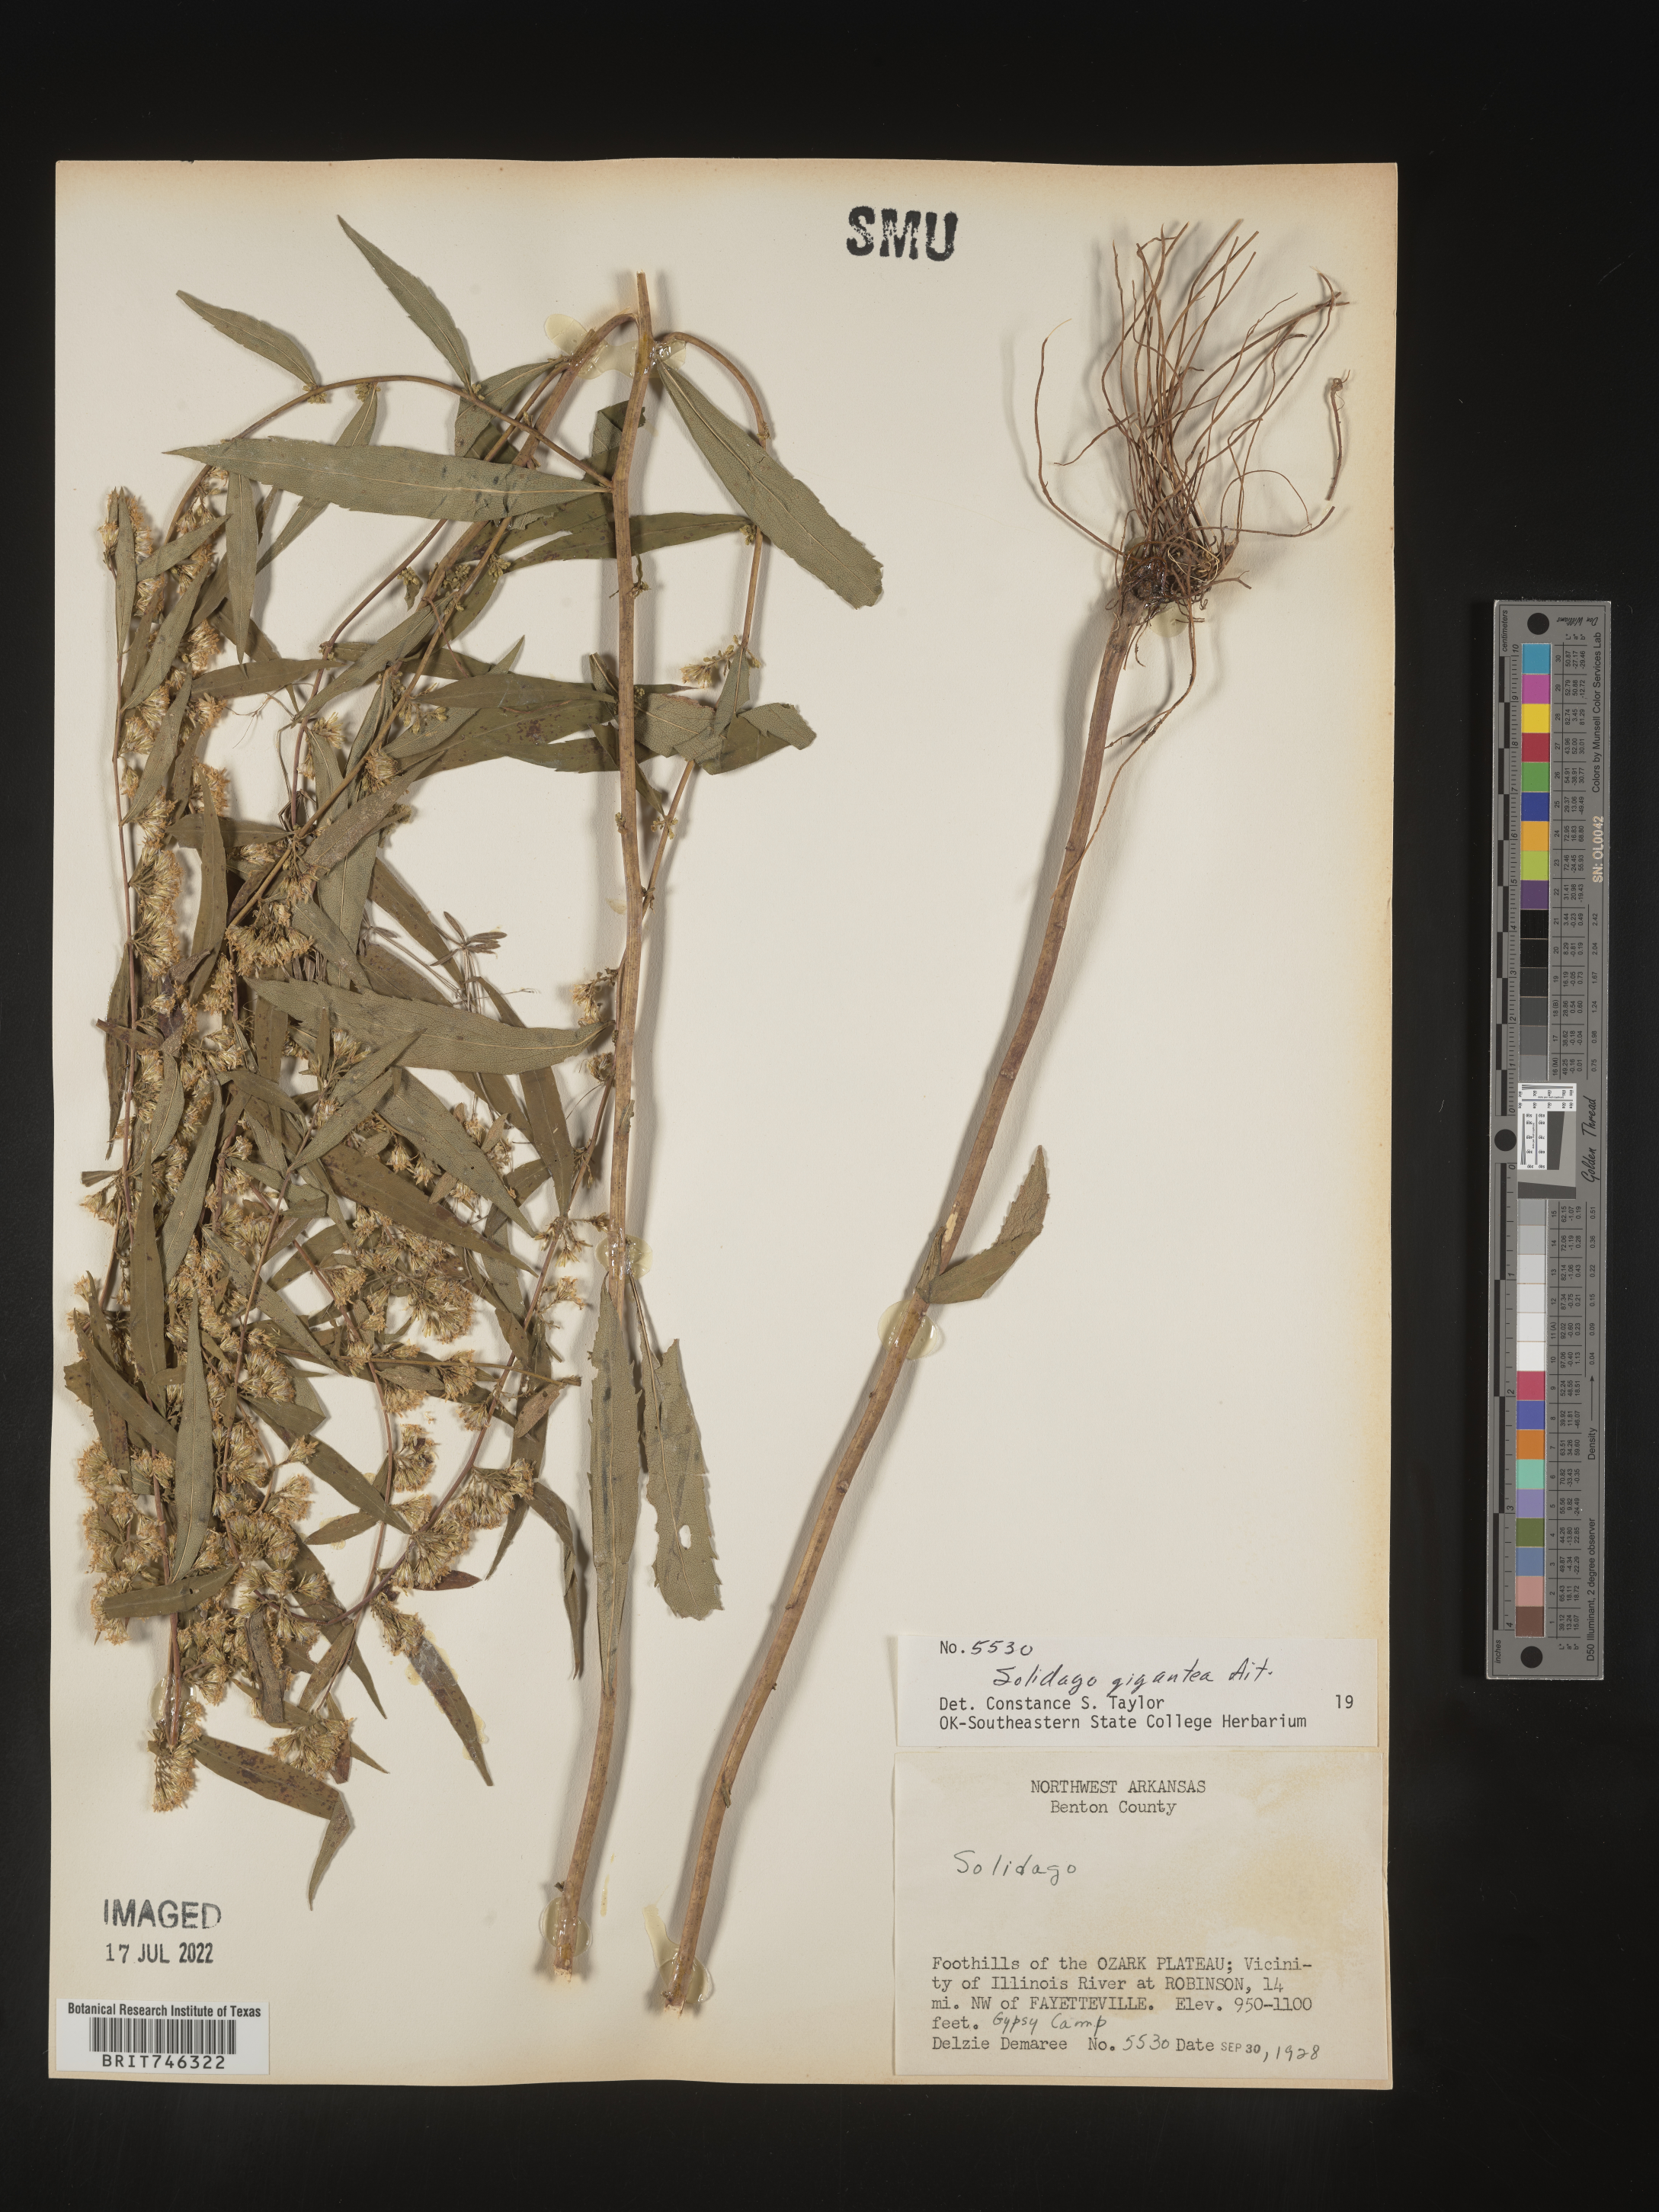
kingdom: Plantae
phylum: Tracheophyta
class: Magnoliopsida
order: Asterales
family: Asteraceae
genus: Solidago
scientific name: Solidago gigantea
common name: Giant goldenrod
